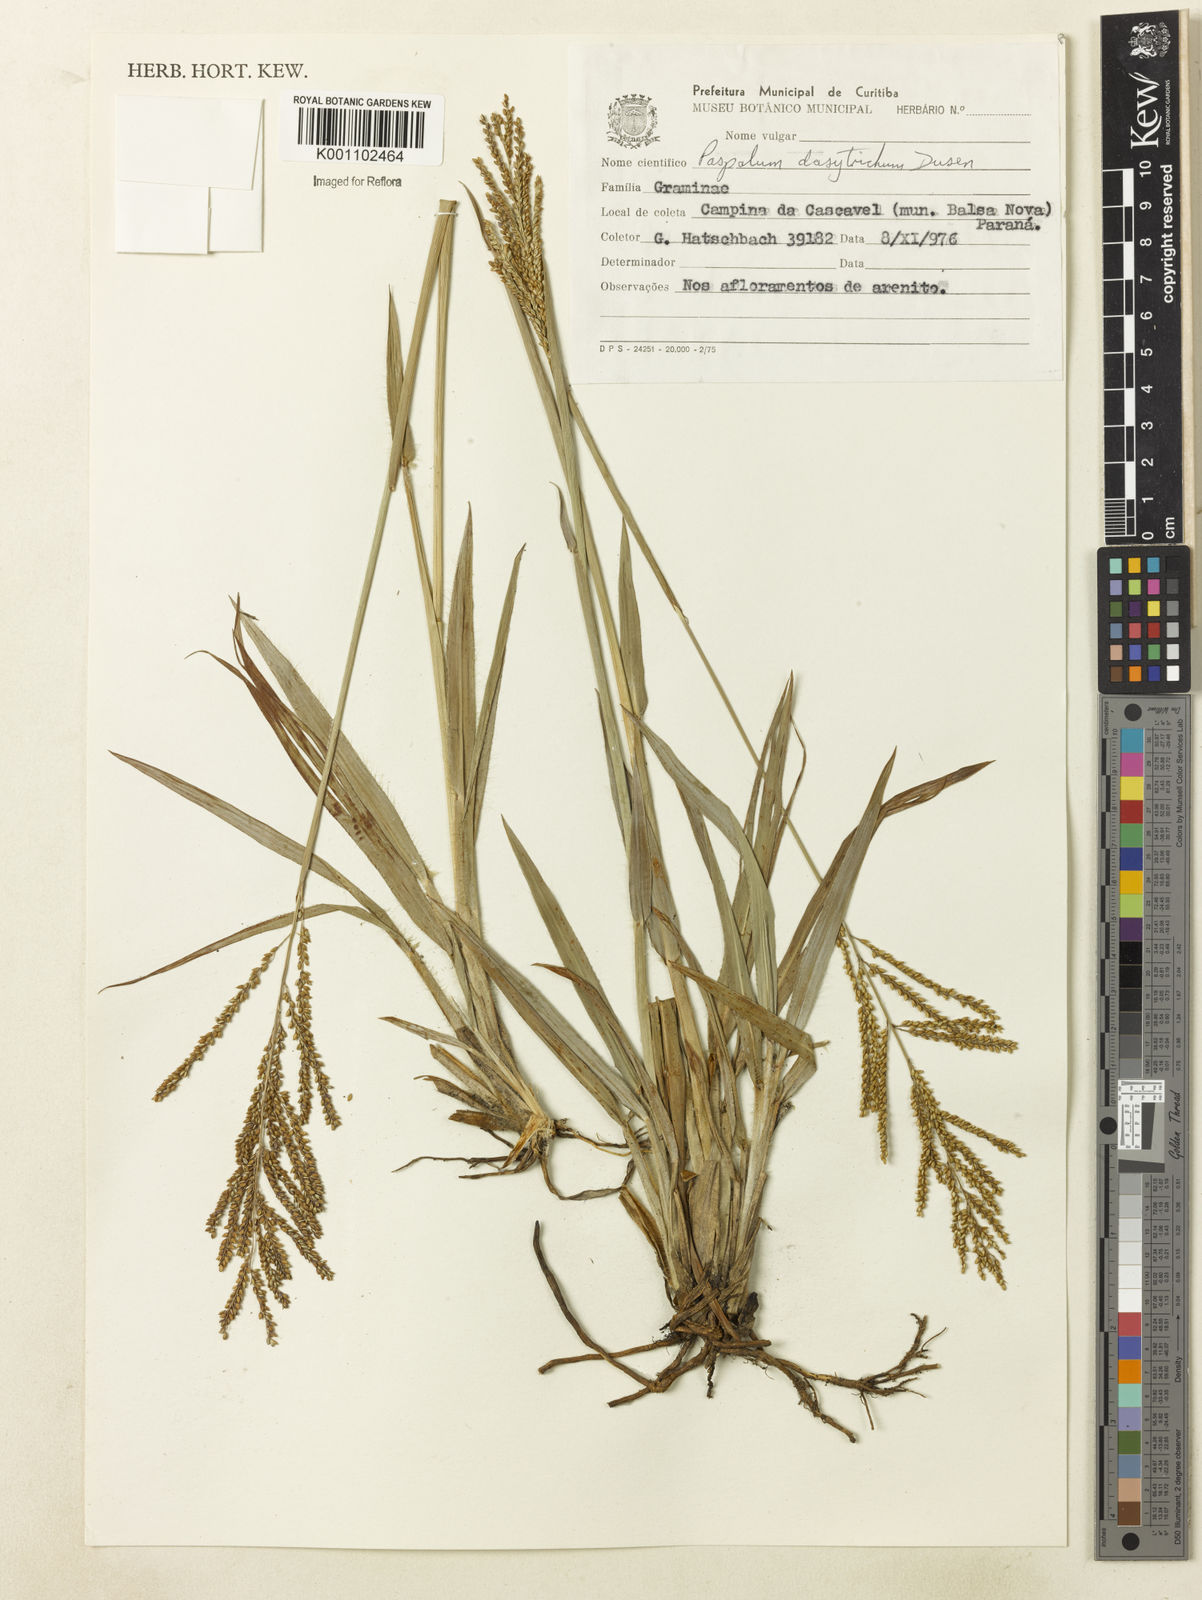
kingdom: Plantae
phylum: Tracheophyta
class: Liliopsida
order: Poales
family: Poaceae
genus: Paspalum
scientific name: Paspalum
